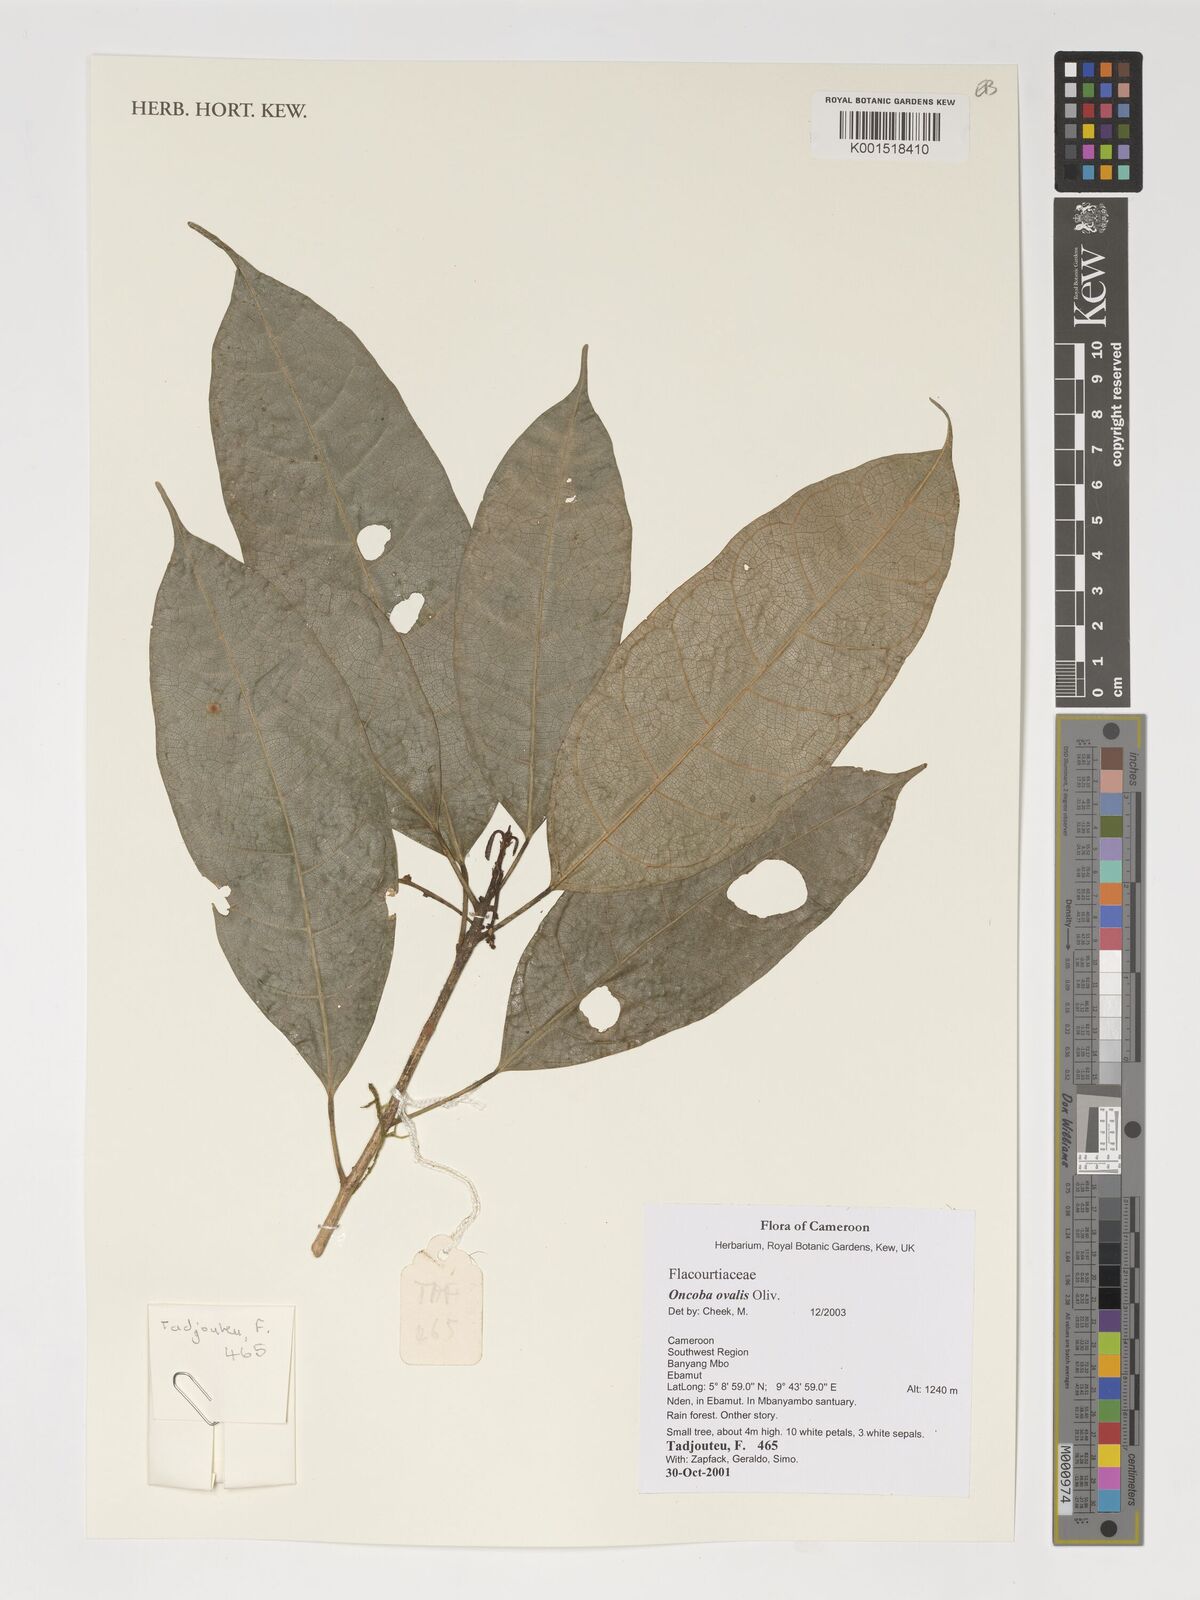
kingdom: Plantae
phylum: Tracheophyta
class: Magnoliopsida
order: Malpighiales
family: Achariaceae
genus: Camptostylus
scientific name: Camptostylus ovalis
